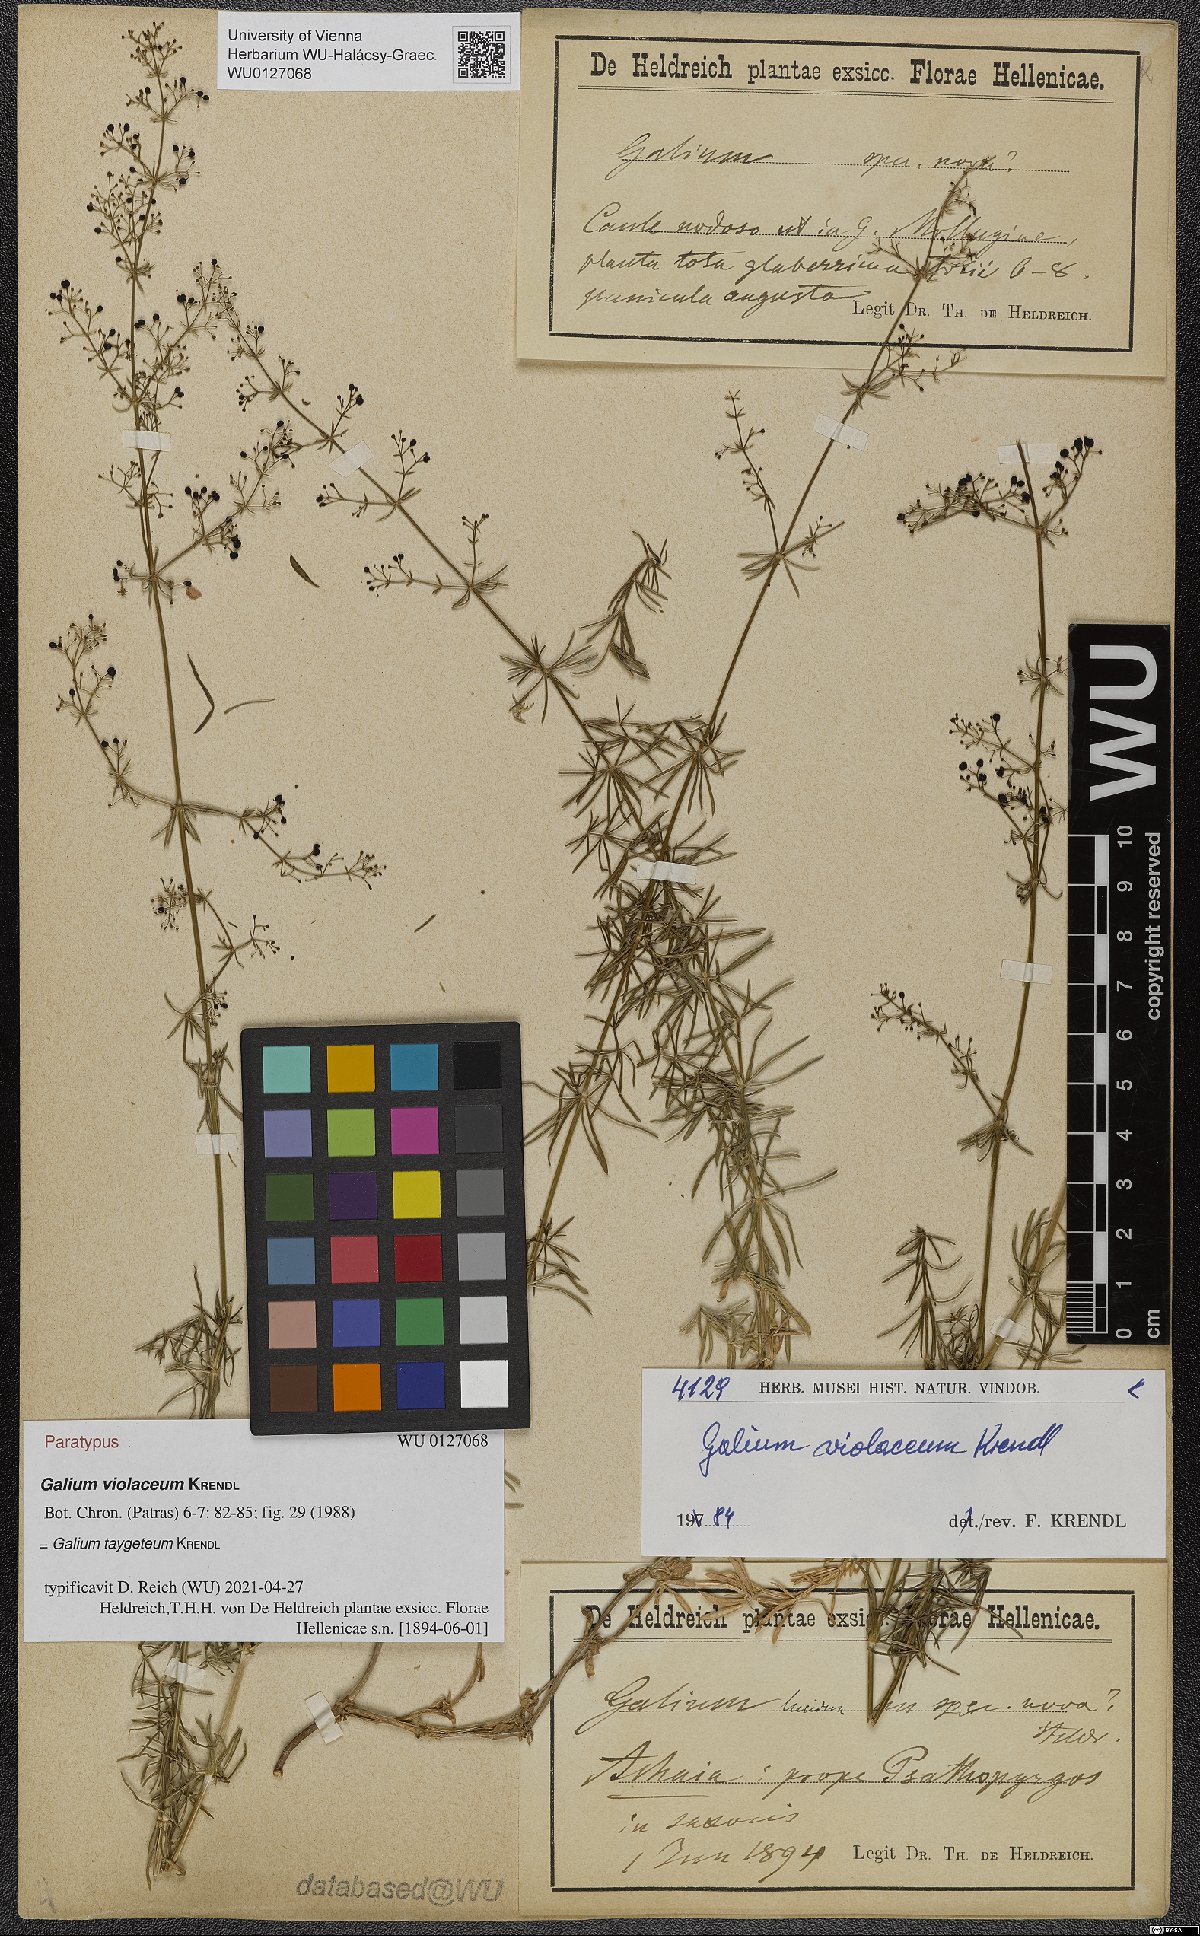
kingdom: Plantae
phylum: Tracheophyta
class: Magnoliopsida
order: Gentianales
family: Rubiaceae
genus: Galium
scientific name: Galium taygeteum
